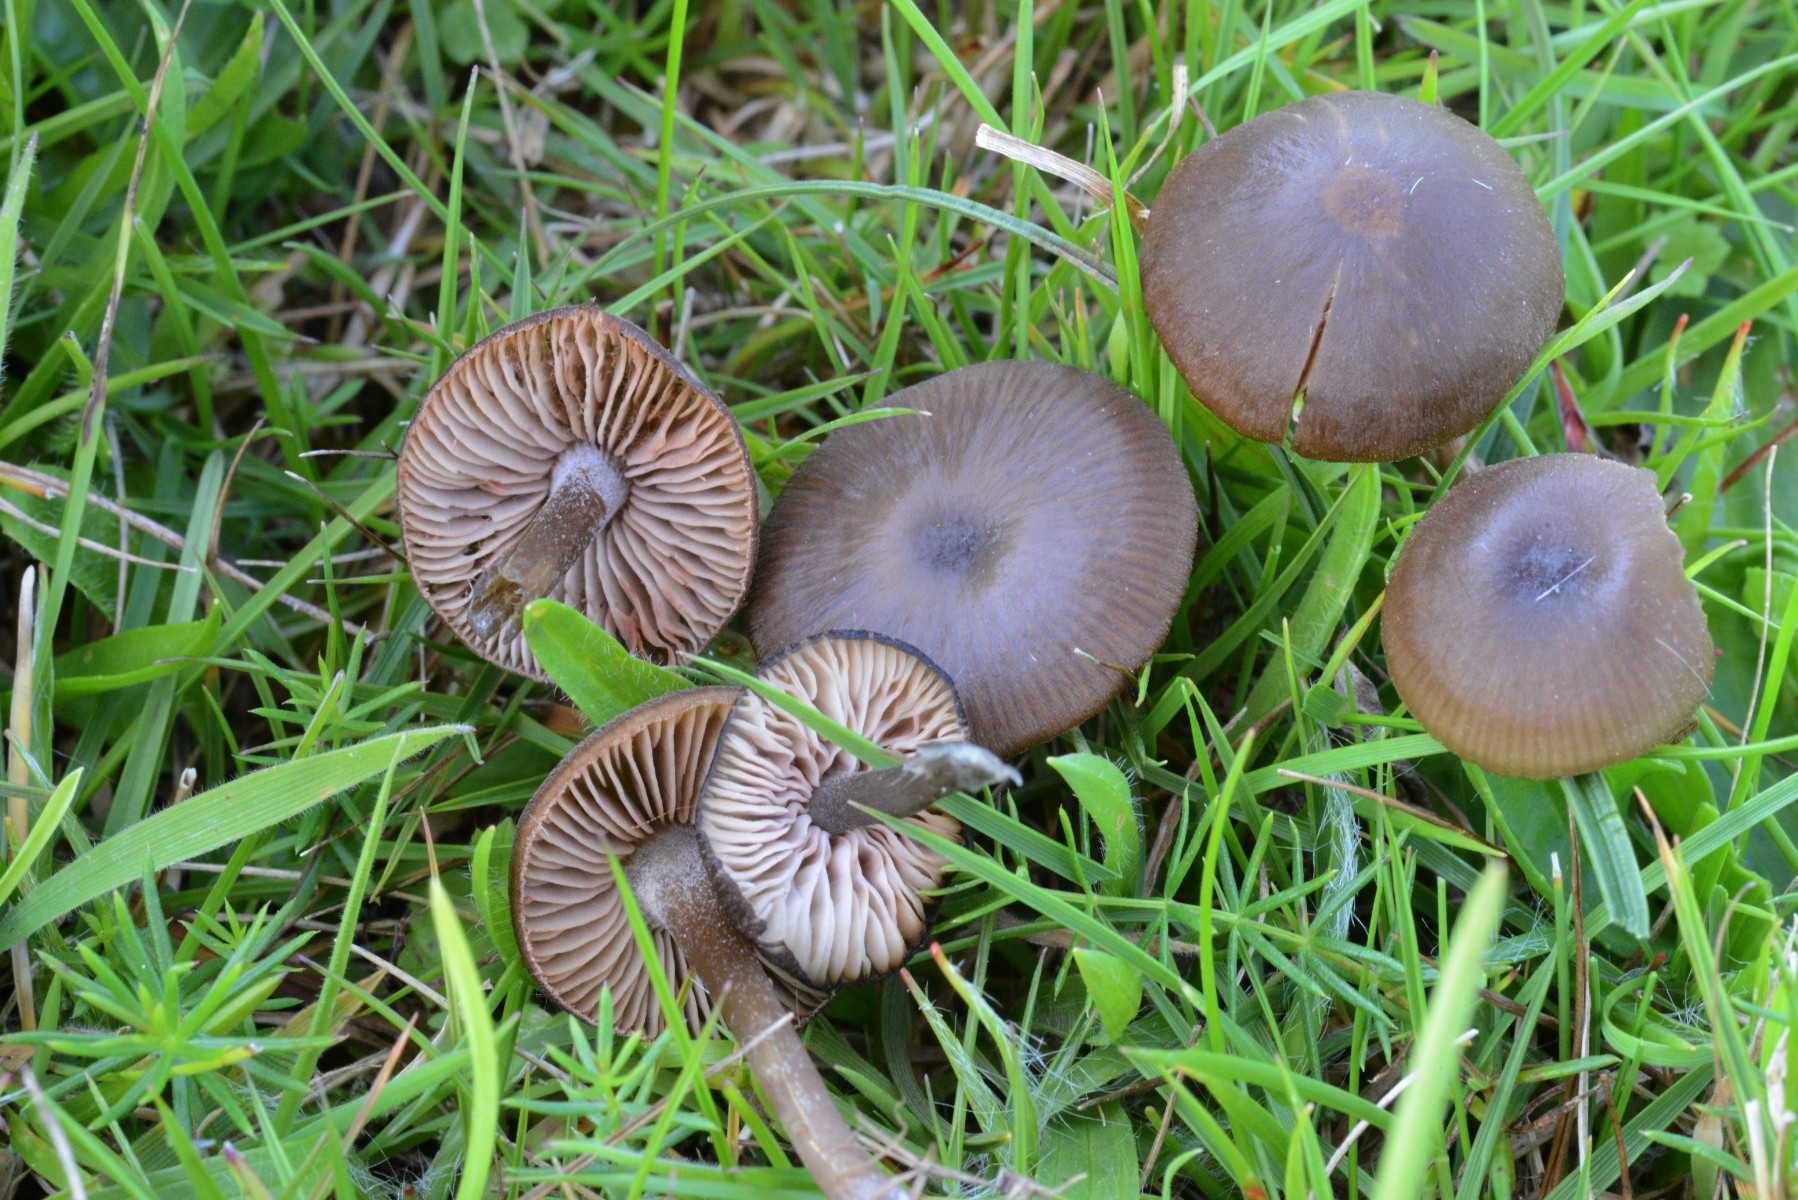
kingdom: Fungi
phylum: Basidiomycota
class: Agaricomycetes
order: Agaricales
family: Entolomataceae
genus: Entoloma
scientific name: Entoloma clandestinum
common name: tykbladet rødblad
